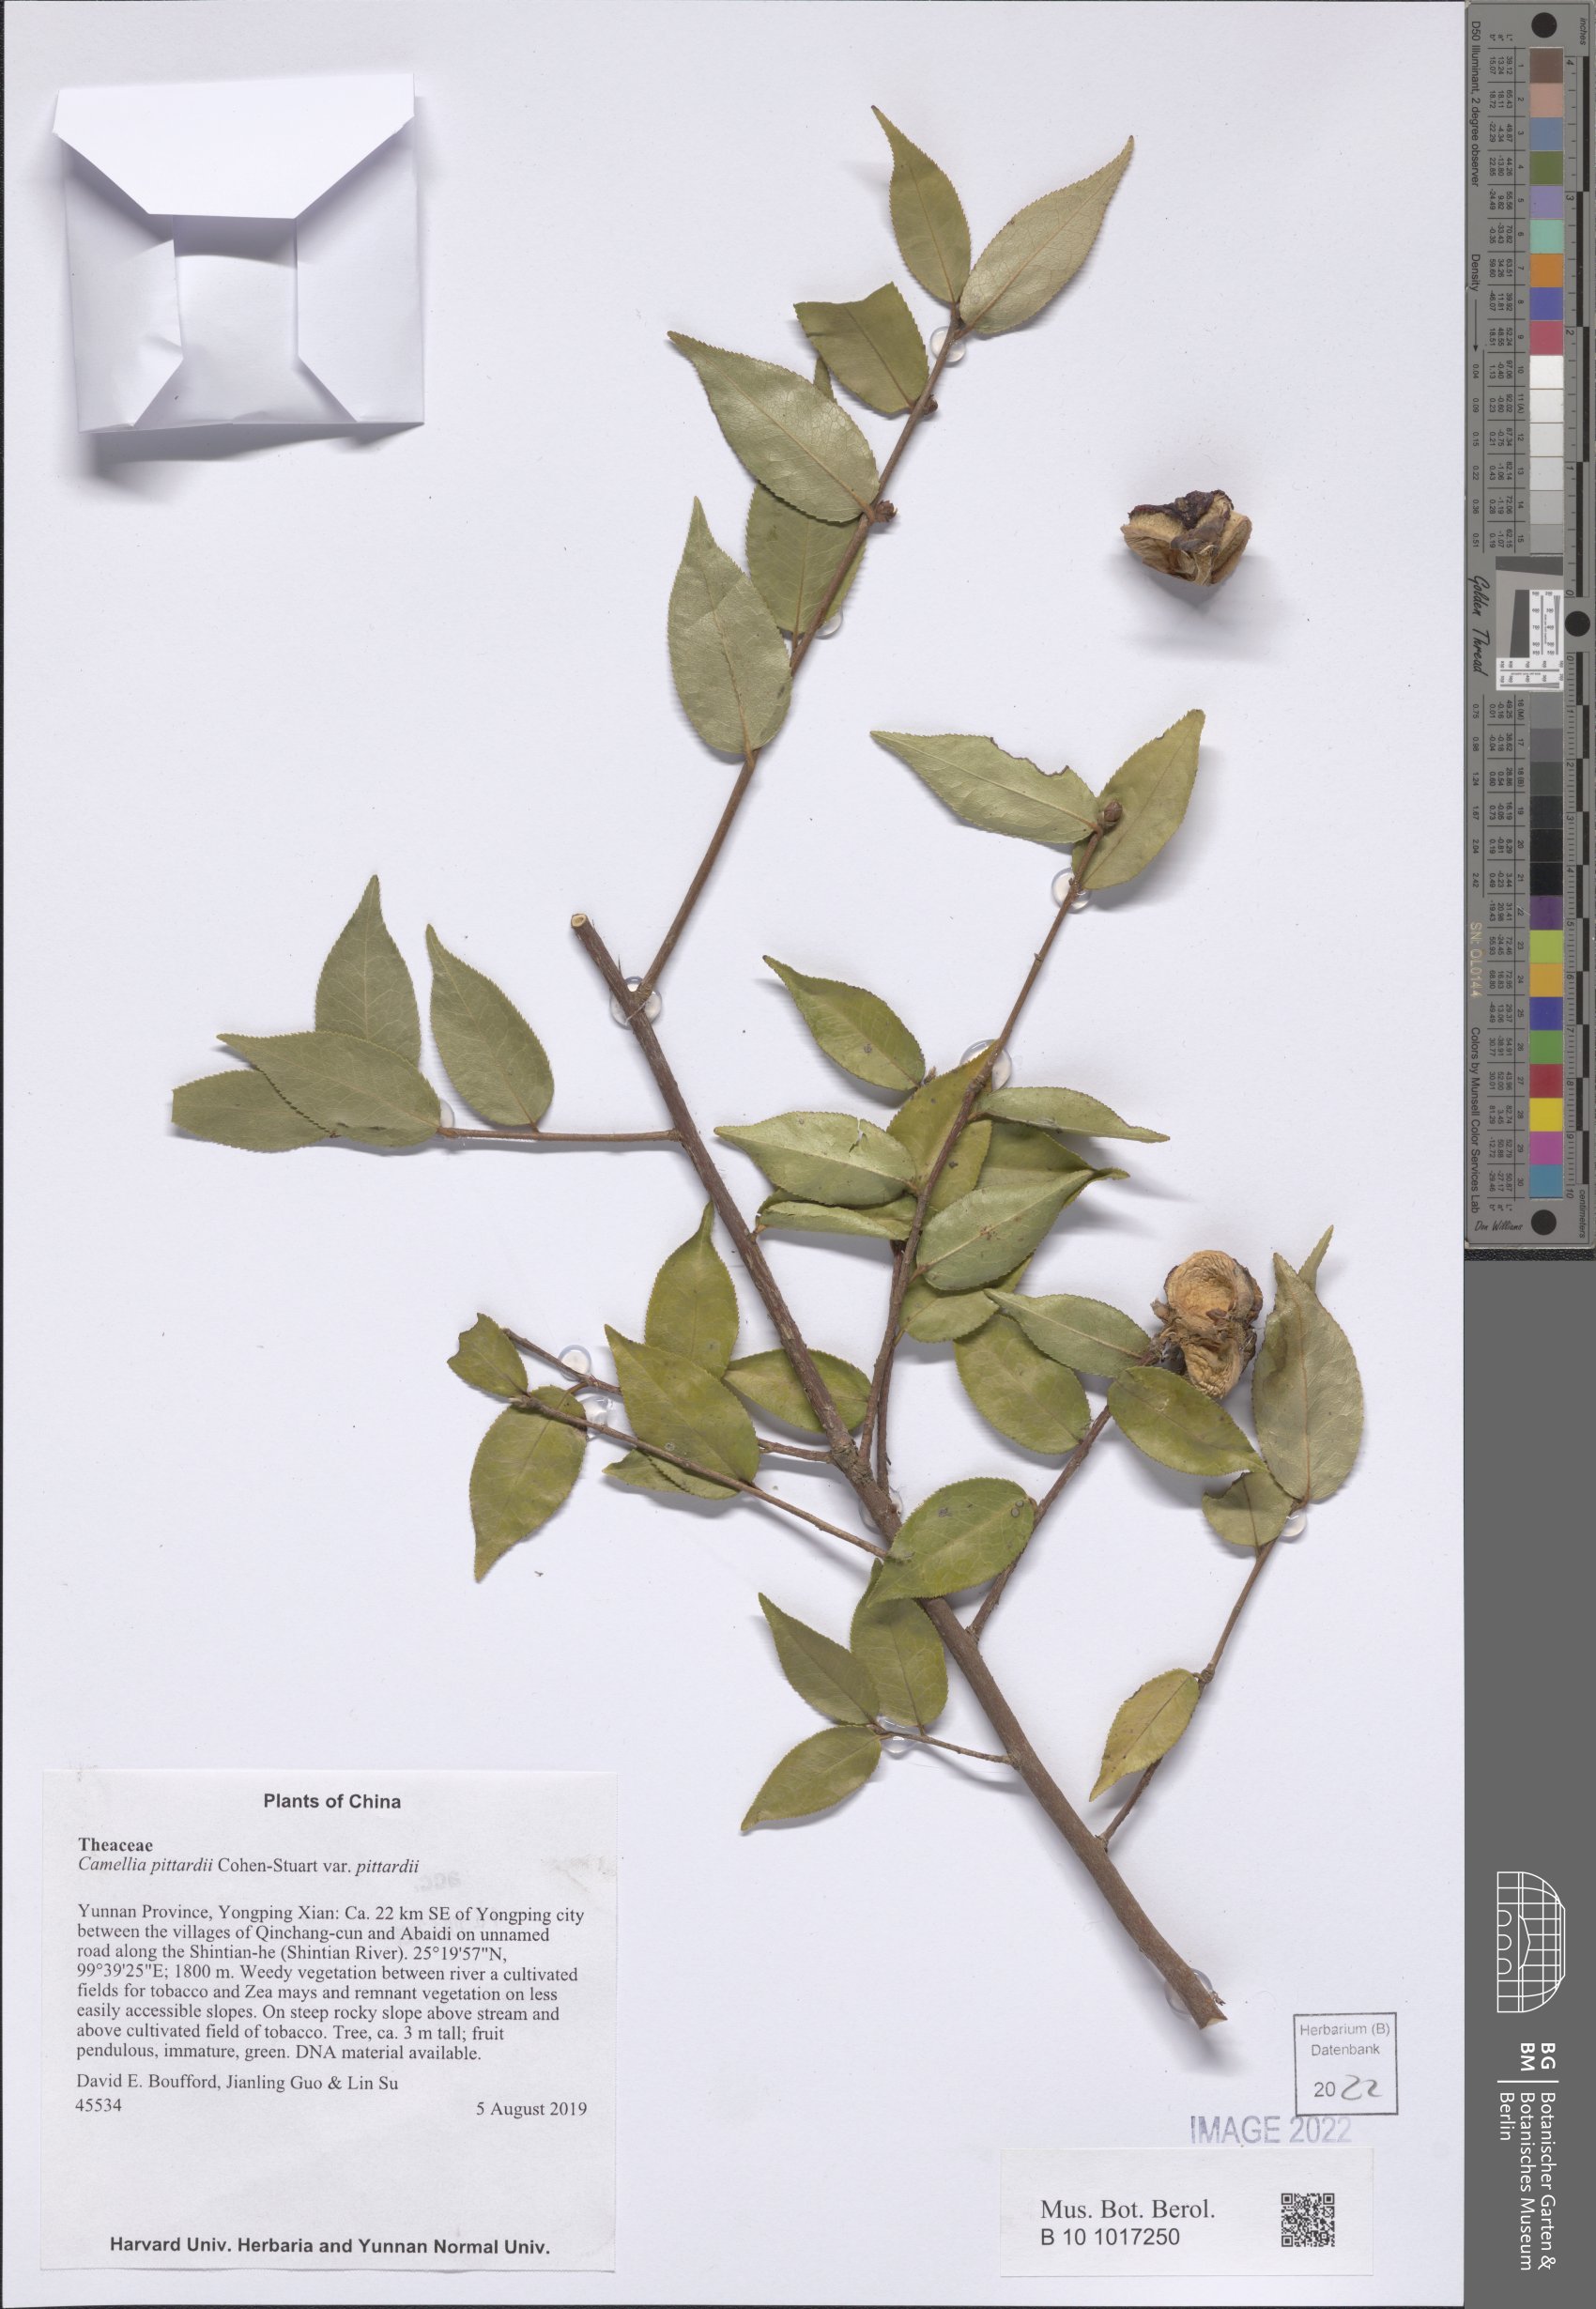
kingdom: Plantae
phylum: Tracheophyta
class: Magnoliopsida
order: Ericales
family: Theaceae
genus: Camellia
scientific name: Camellia pitardii
